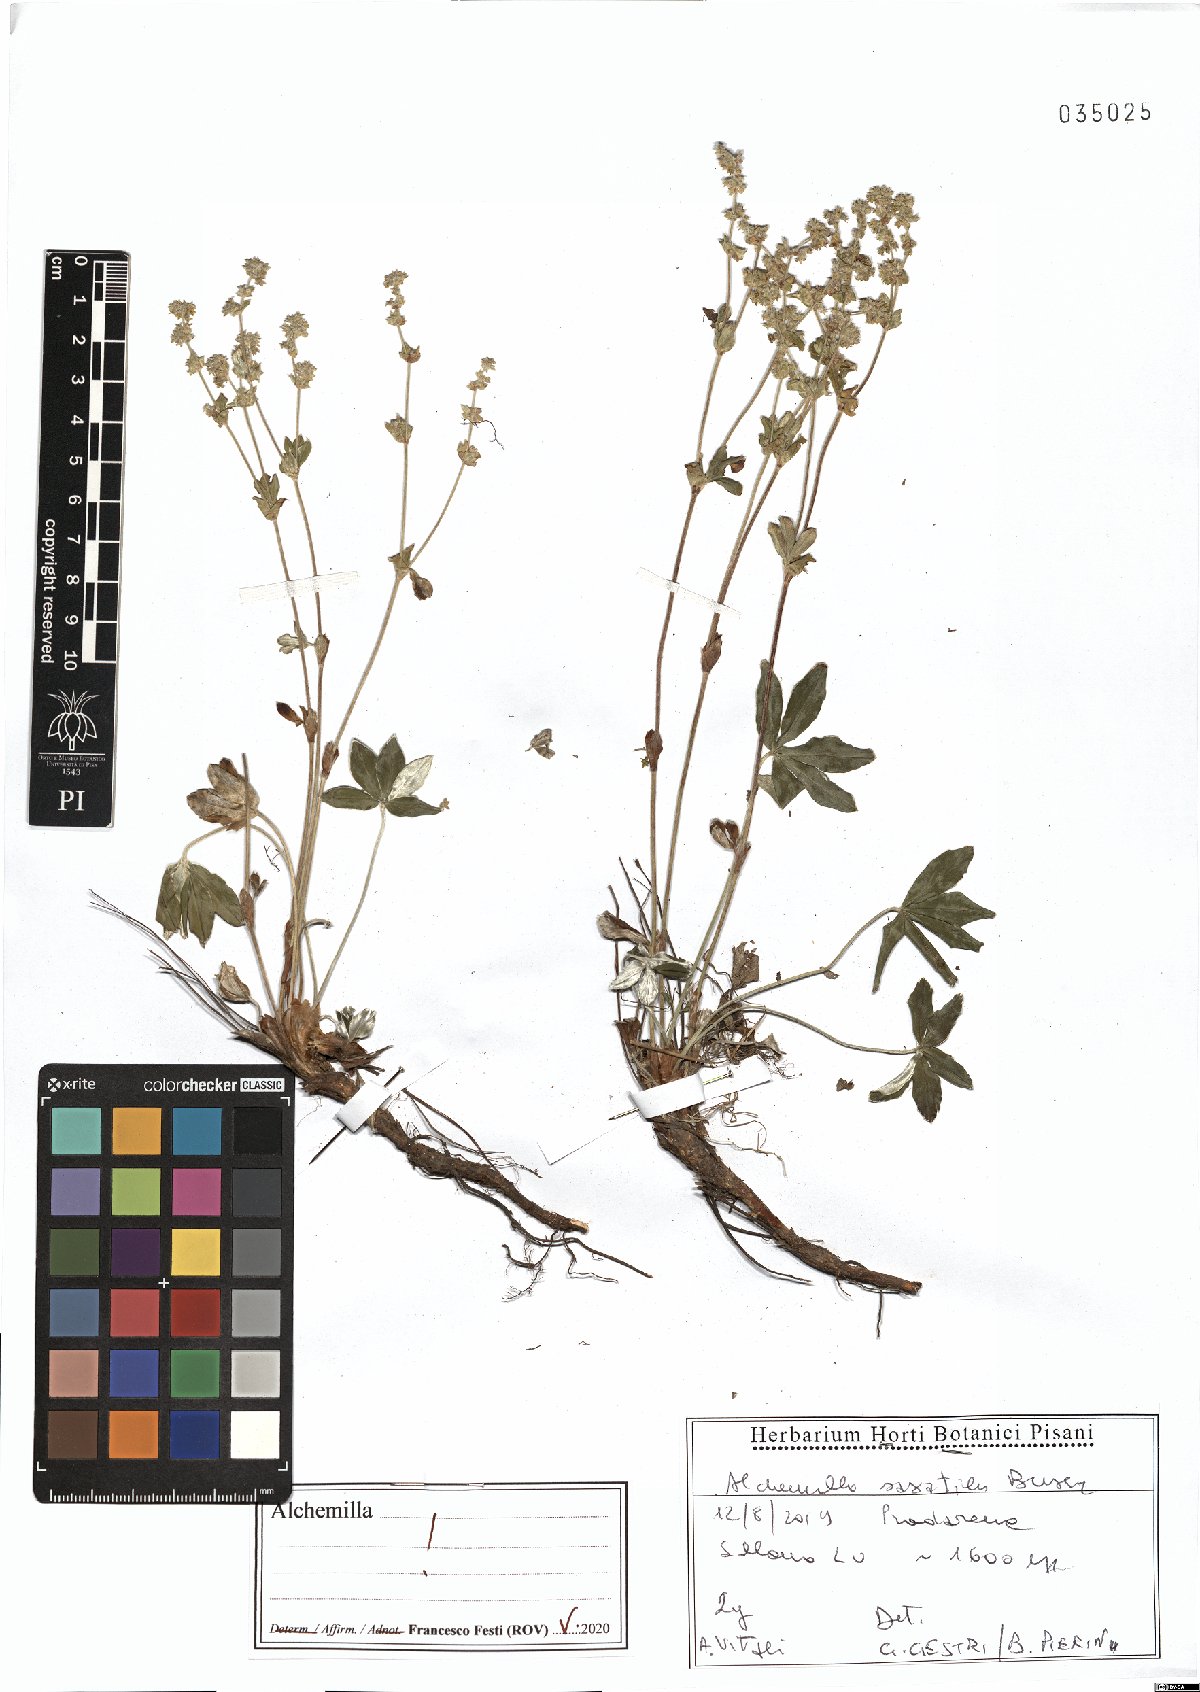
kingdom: Plantae
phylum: Tracheophyta
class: Magnoliopsida
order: Rosales
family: Rosaceae
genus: Alchemilla
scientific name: Alchemilla saxatilis
